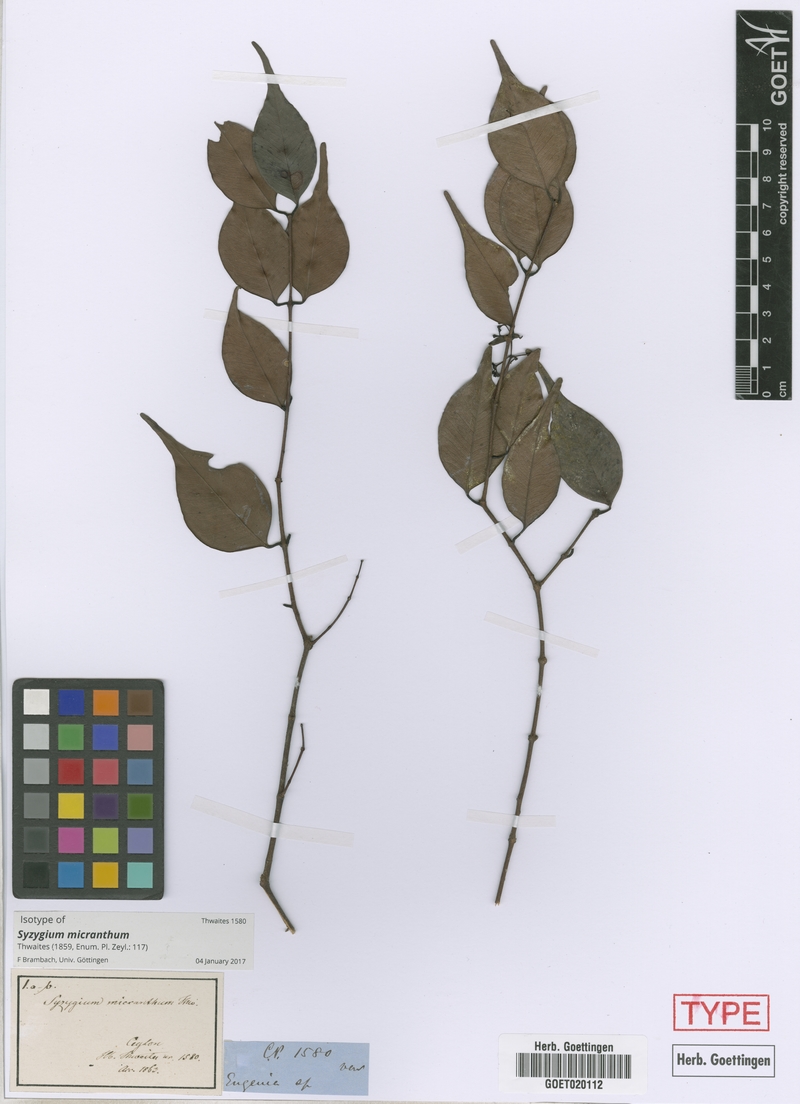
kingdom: Plantae
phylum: Tracheophyta
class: Magnoliopsida
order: Myrtales
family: Myrtaceae
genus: Syzygium
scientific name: Syzygium micranthum
